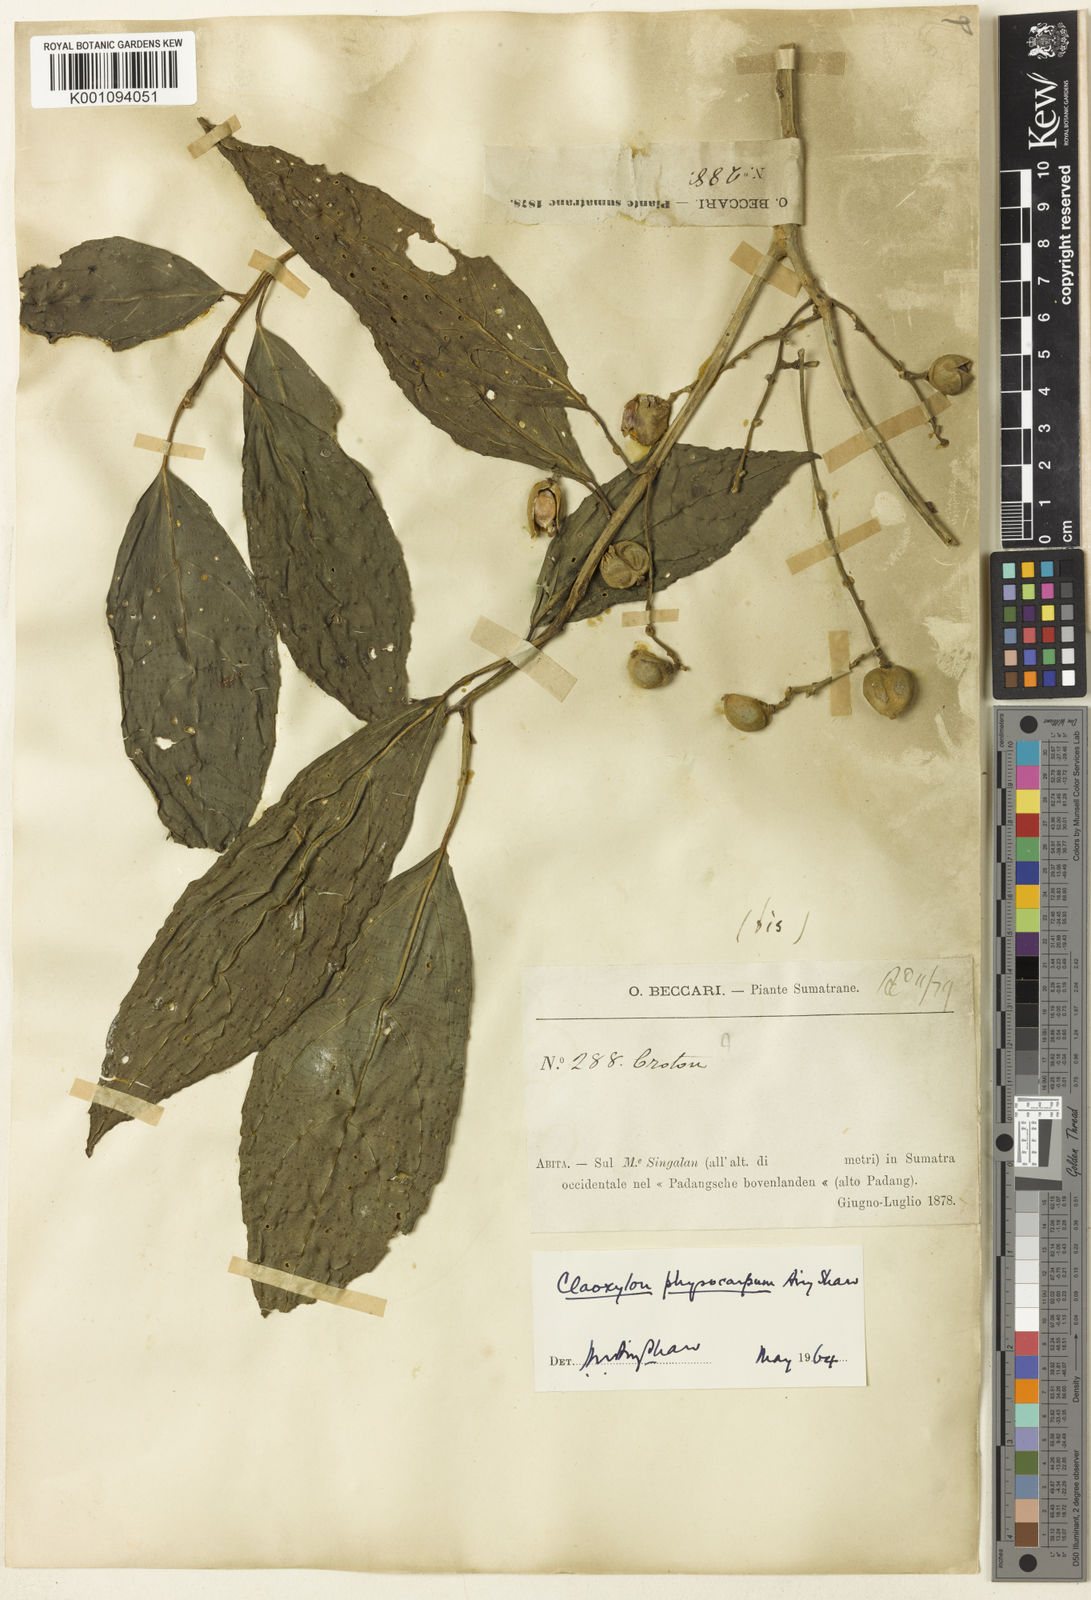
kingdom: Plantae
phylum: Tracheophyta
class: Magnoliopsida
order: Malpighiales
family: Euphorbiaceae
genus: Claoxylon
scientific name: Claoxylon physocarpum
